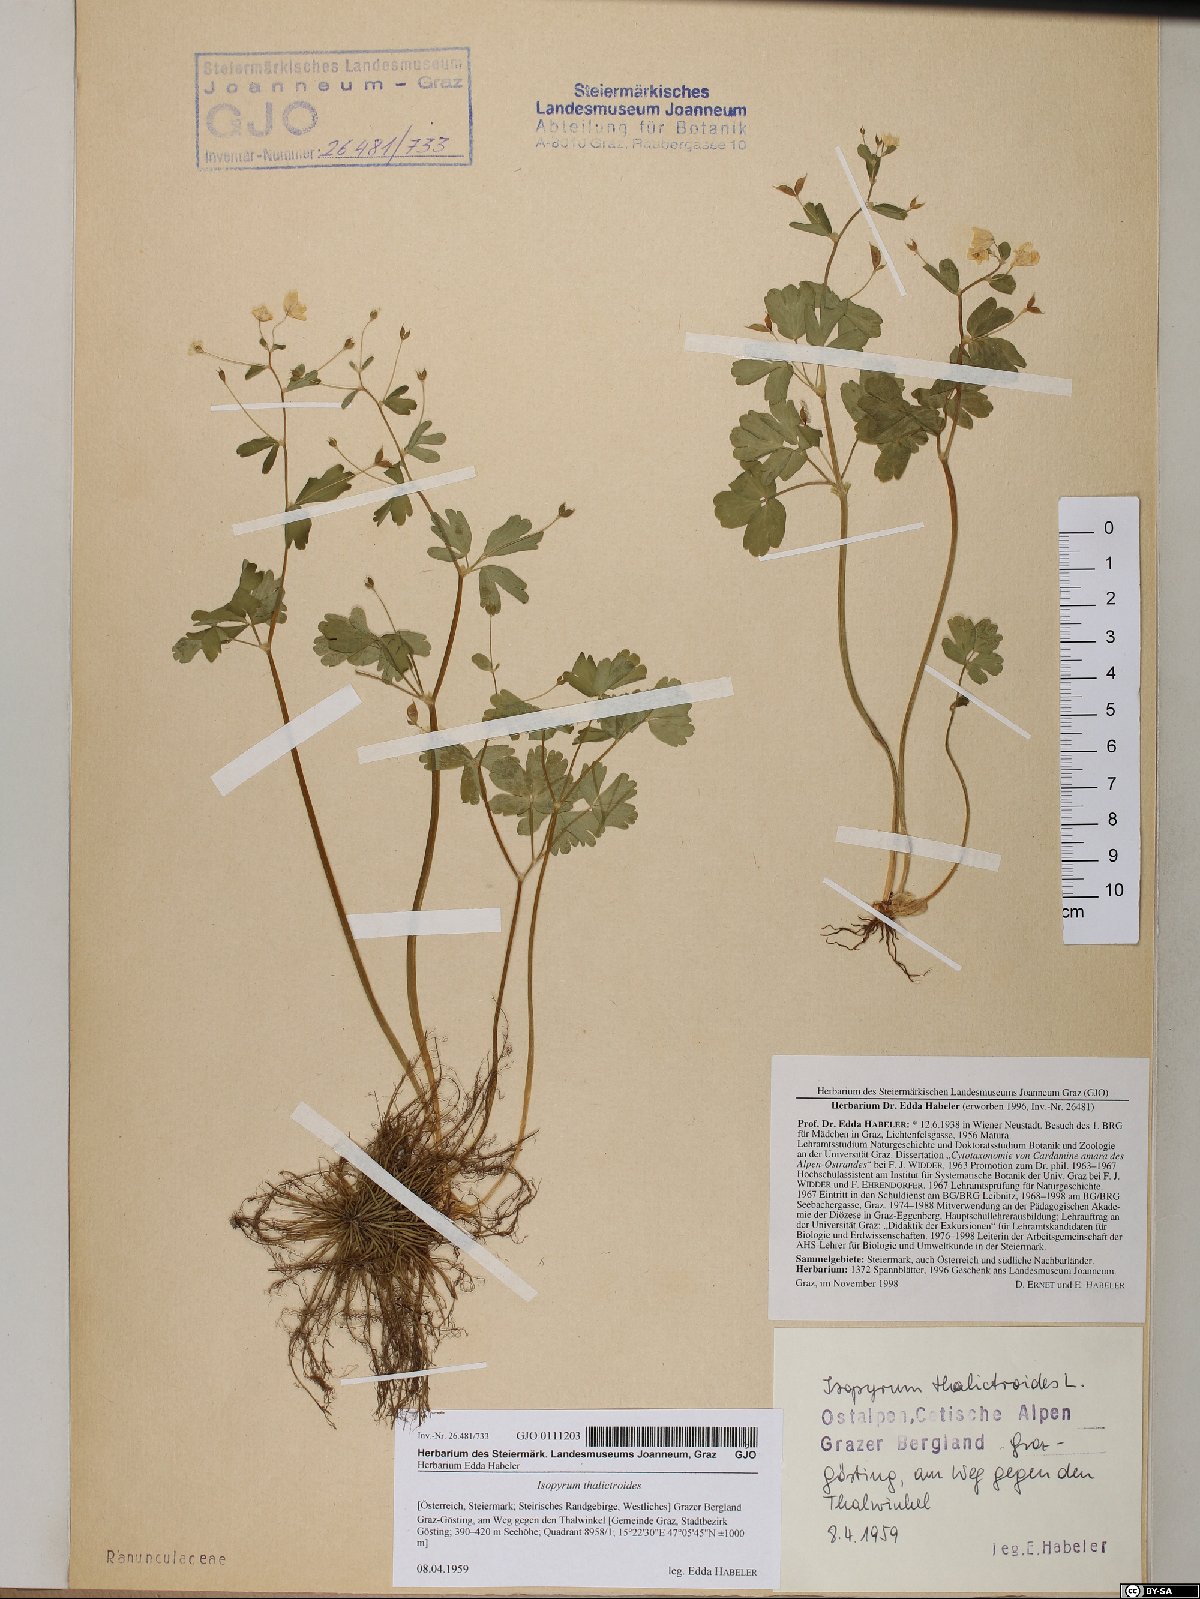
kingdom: Plantae
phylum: Tracheophyta
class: Magnoliopsida
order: Ranunculales
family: Ranunculaceae
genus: Isopyrum
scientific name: Isopyrum thalictroides
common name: Isopyrum
